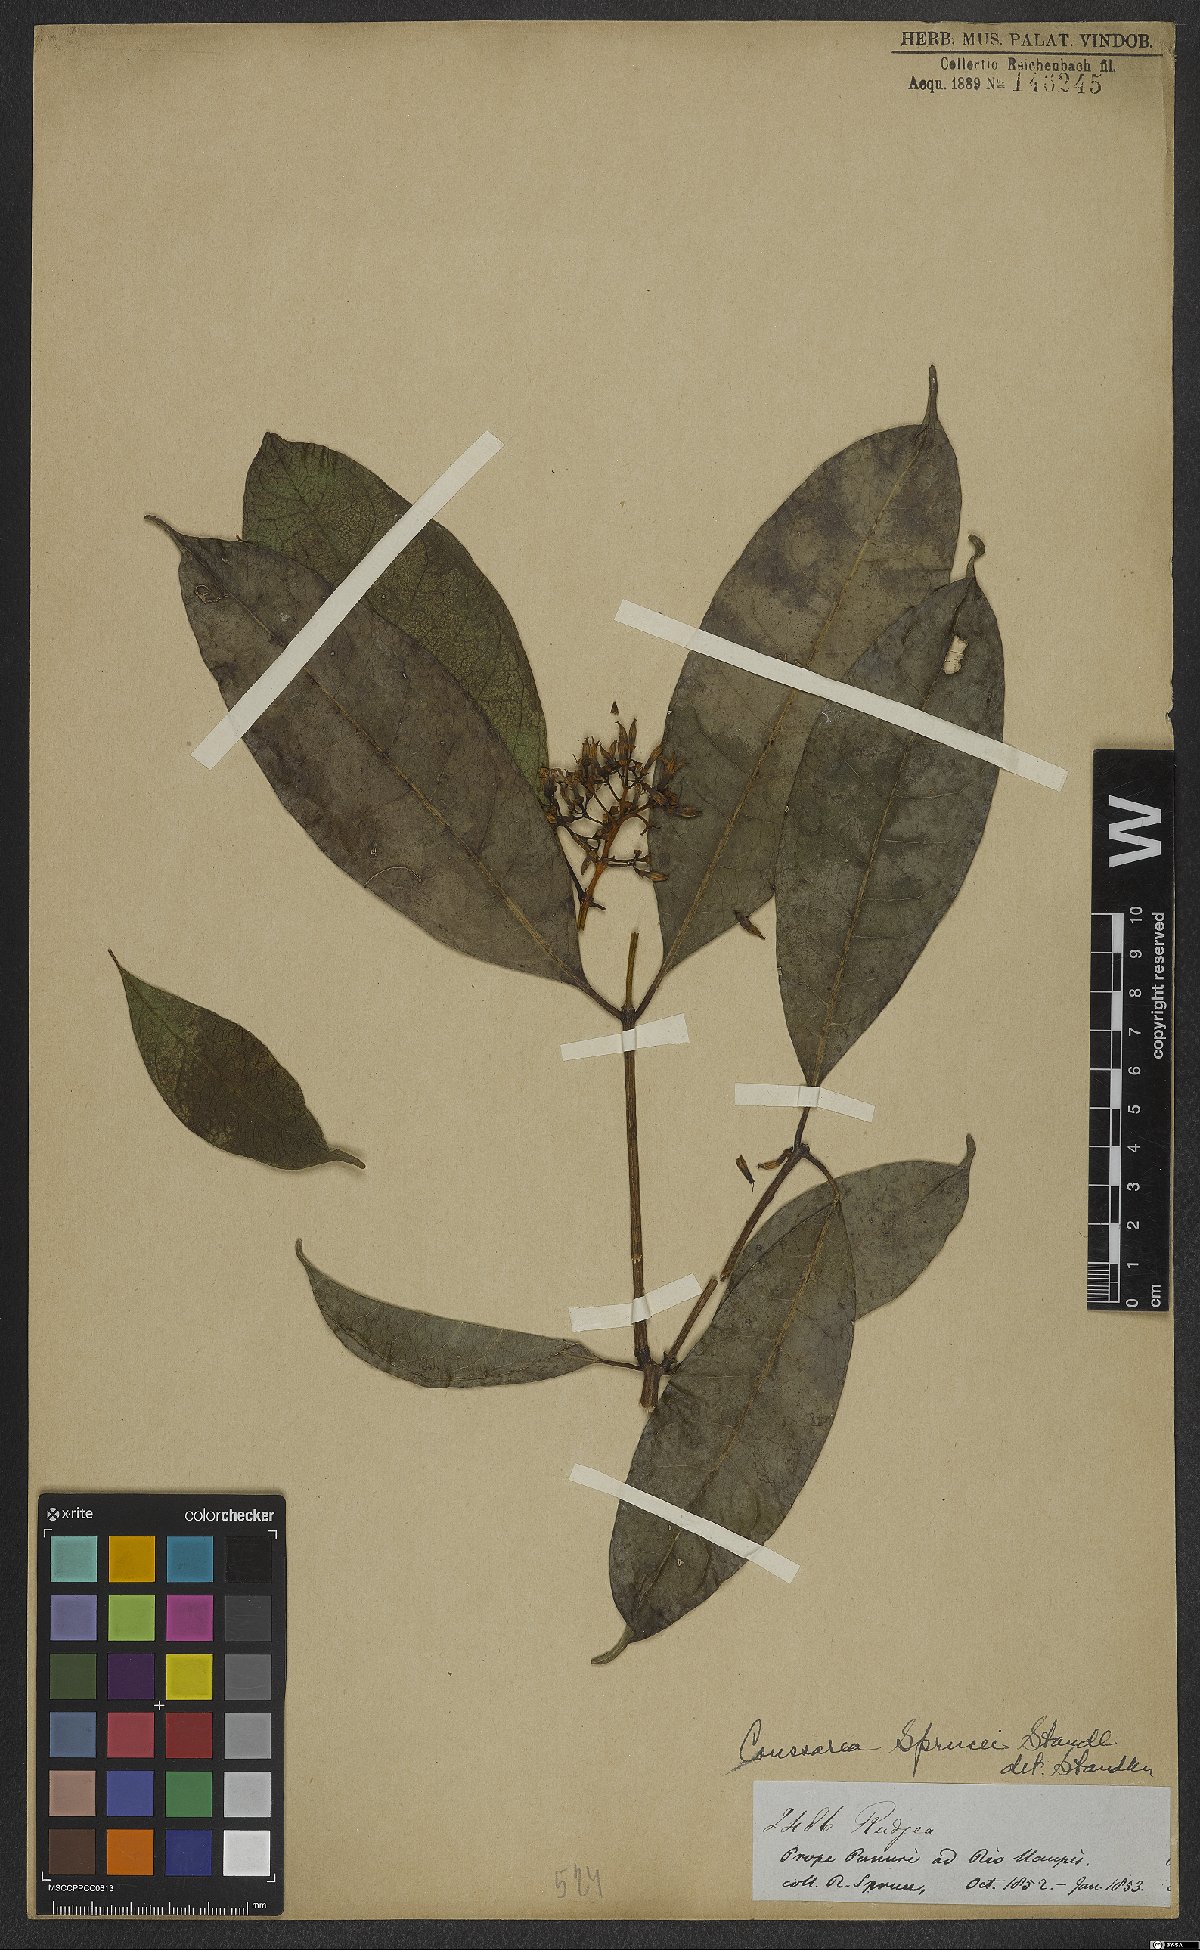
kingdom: Plantae
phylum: Tracheophyta
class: Magnoliopsida
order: Gentianales
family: Rubiaceae
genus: Coussarea
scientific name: Coussarea violacea
